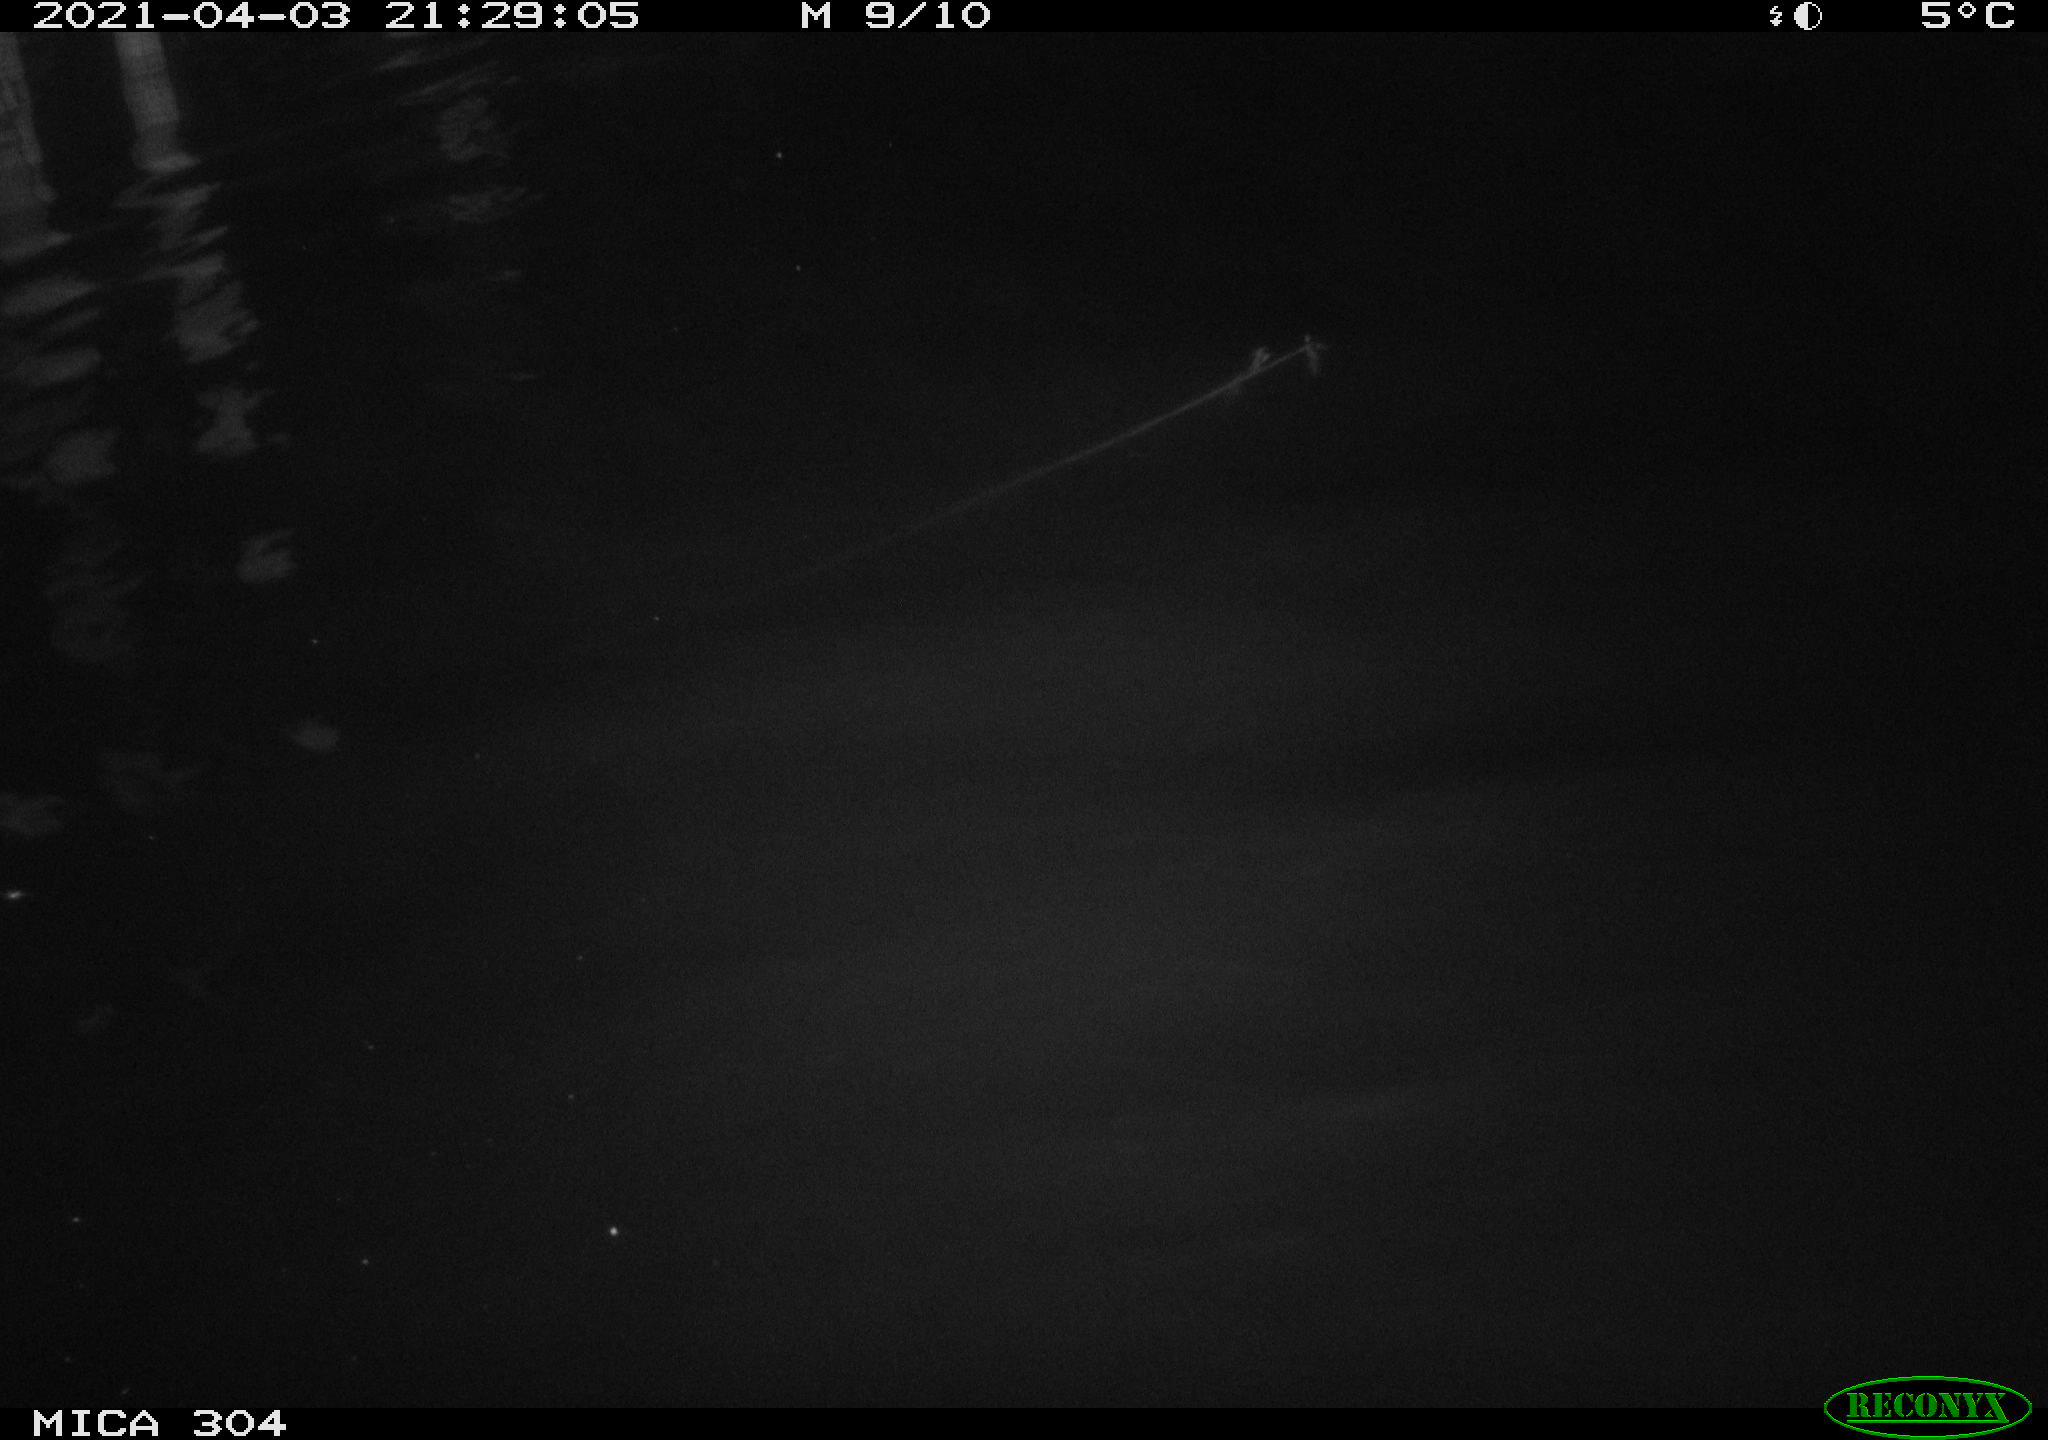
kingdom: Animalia
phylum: Chordata
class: Aves
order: Anseriformes
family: Anatidae
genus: Anas
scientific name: Anas
